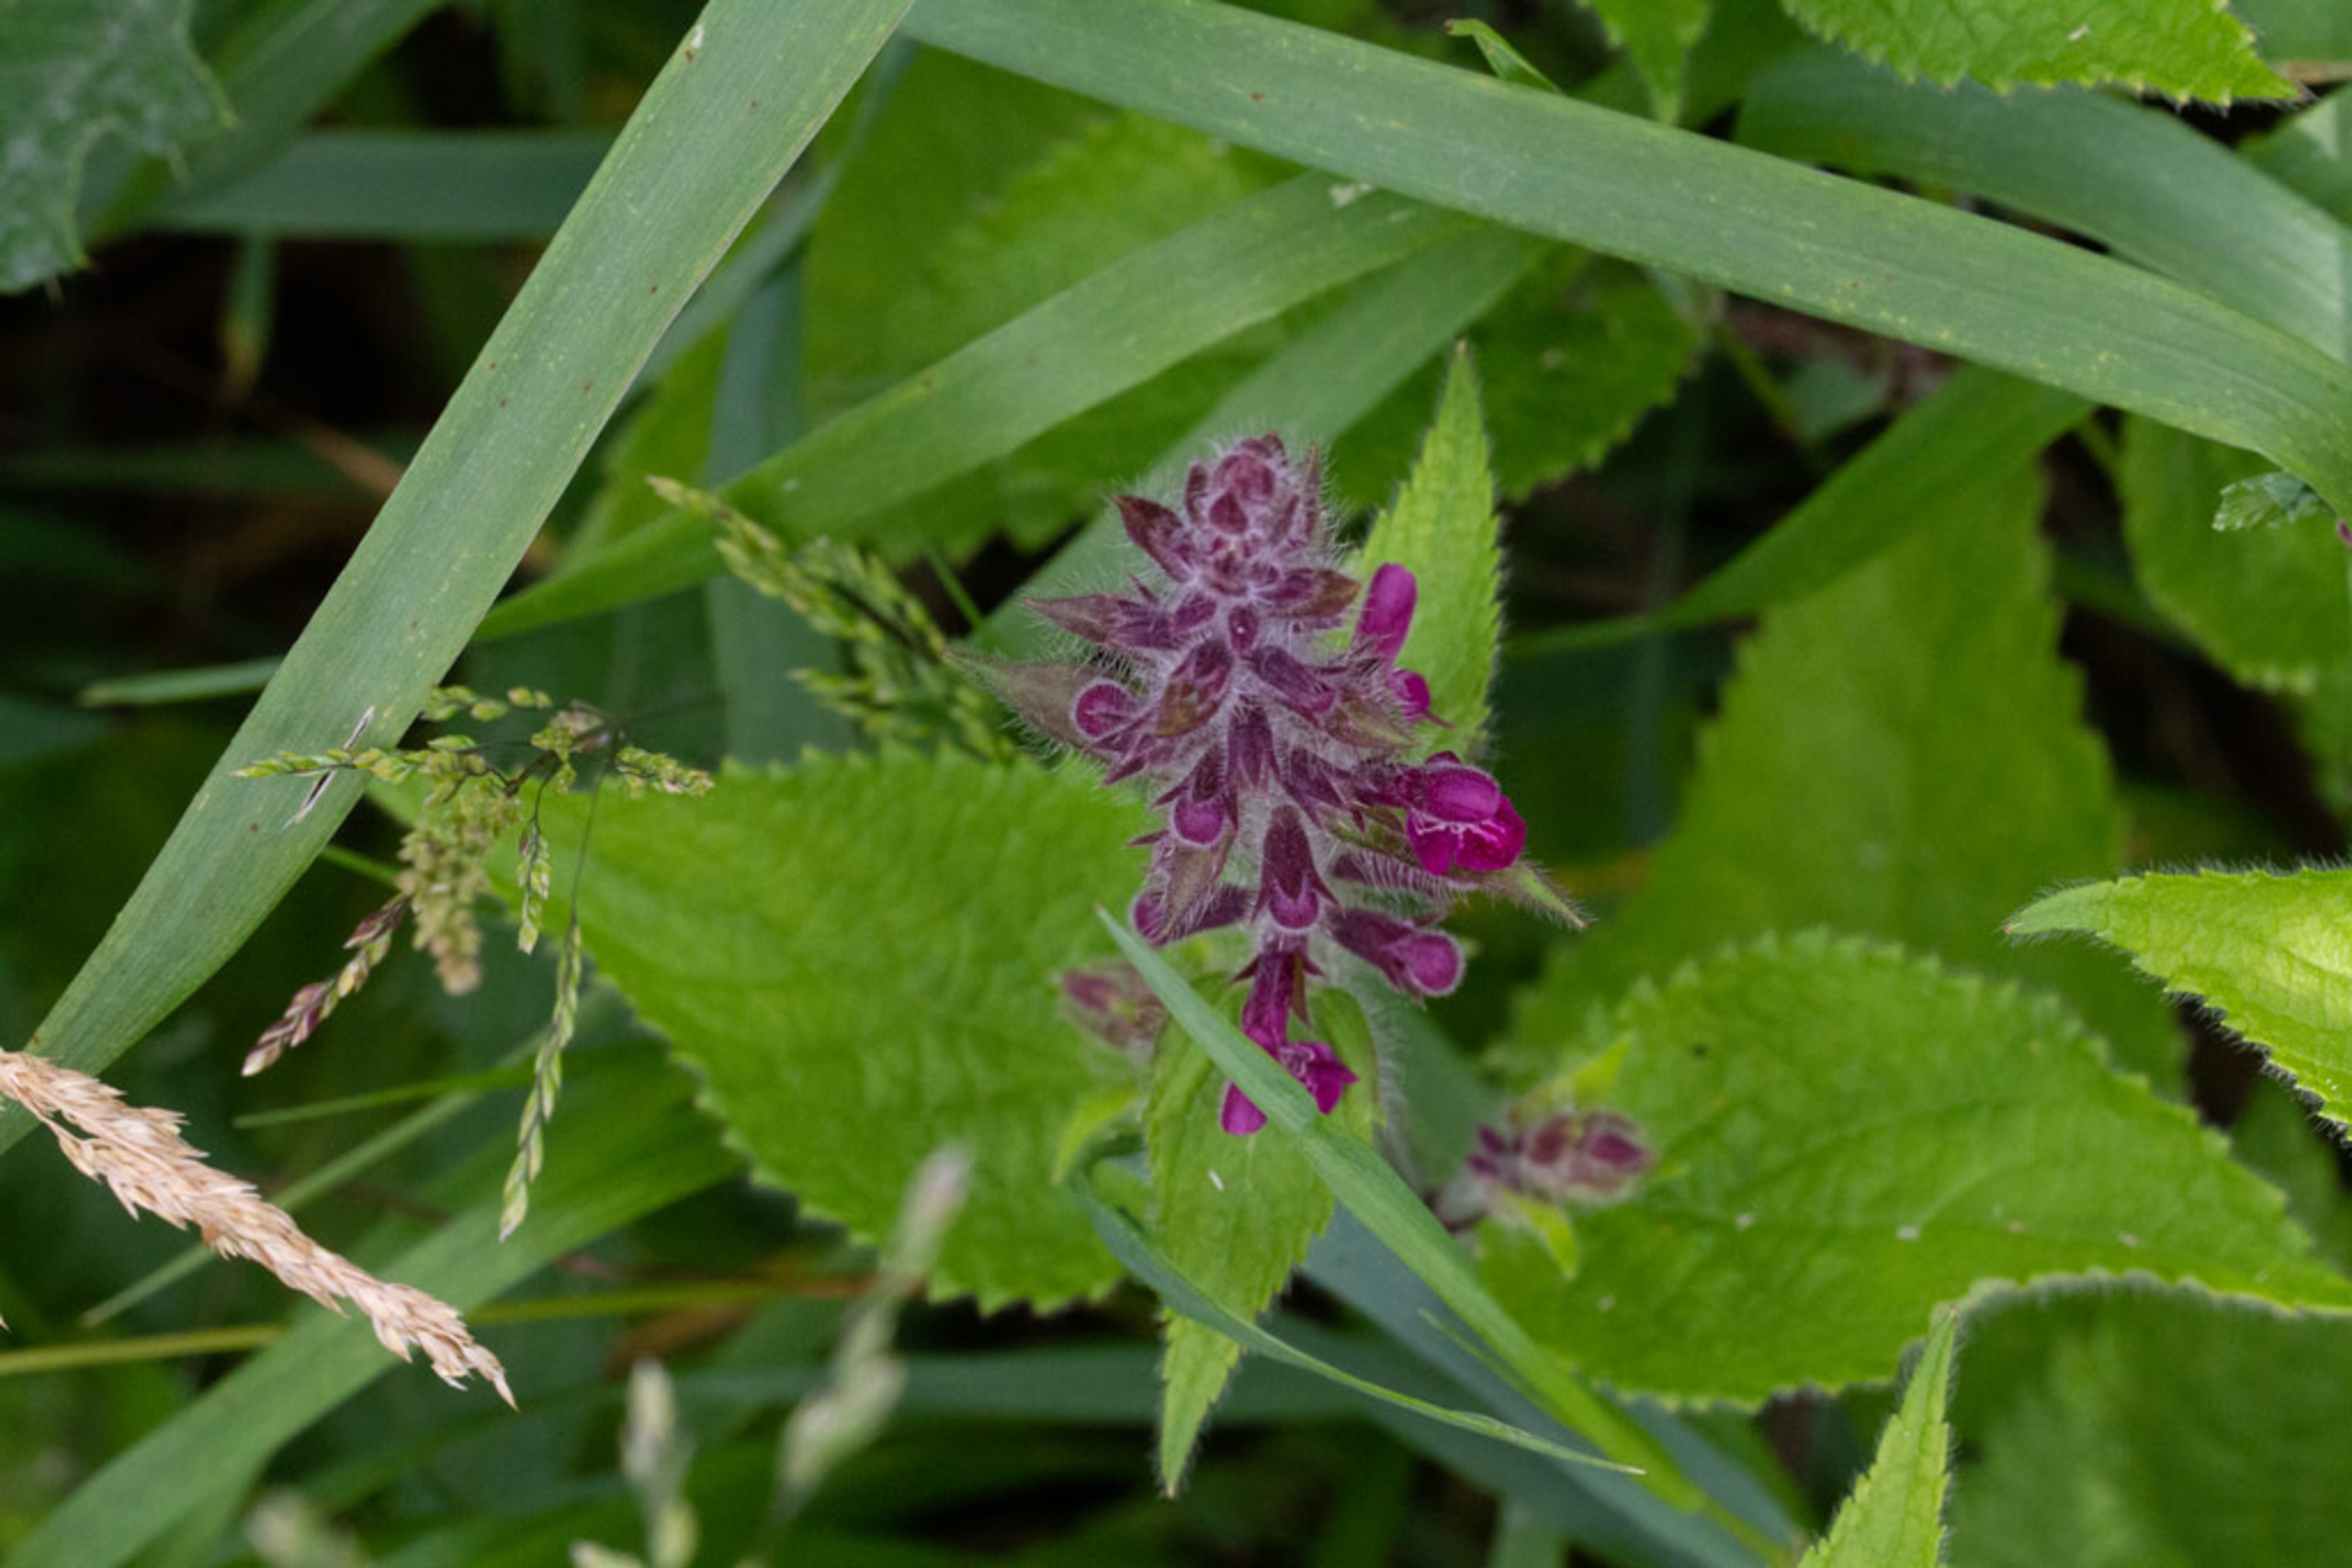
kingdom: Plantae
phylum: Tracheophyta
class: Magnoliopsida
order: Lamiales
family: Lamiaceae
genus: Stachys
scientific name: Stachys sylvatica
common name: Skov-galtetand
